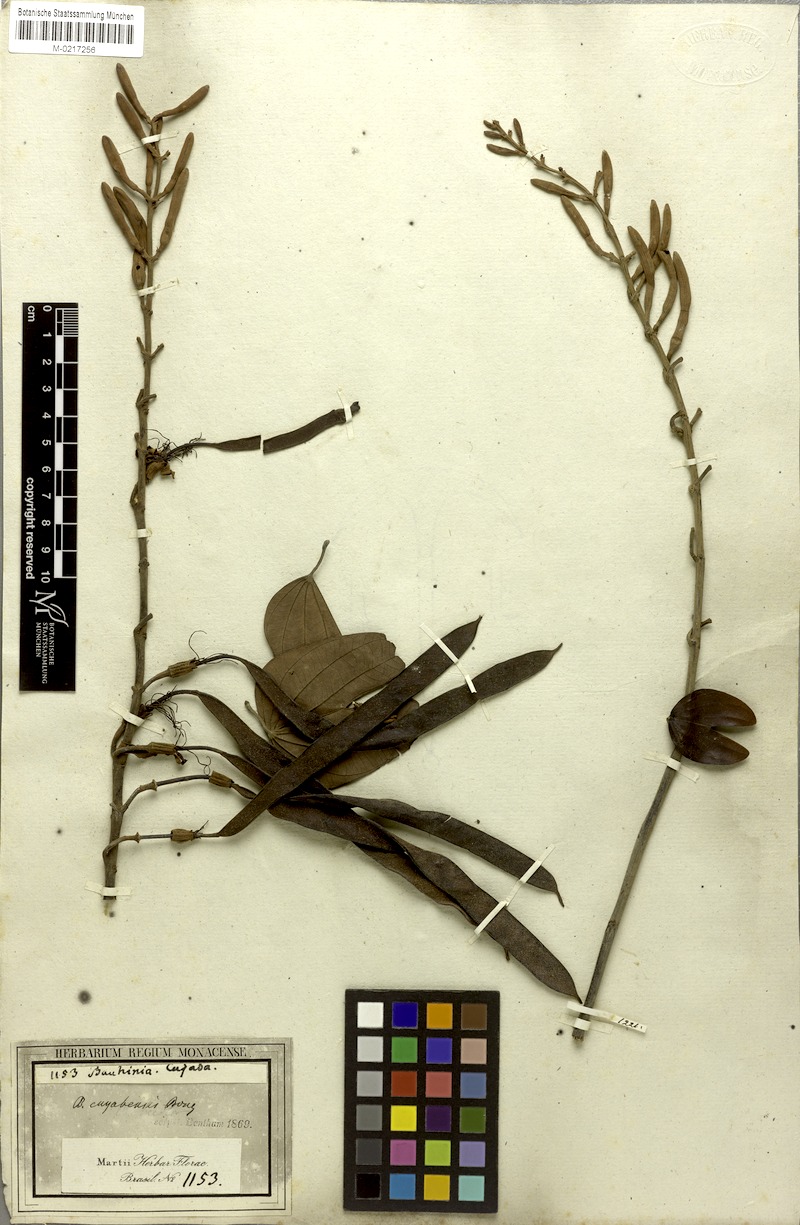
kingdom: Plantae
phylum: Tracheophyta
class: Magnoliopsida
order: Fabales
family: Fabaceae
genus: Bauhinia
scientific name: Bauhinia ungulata
